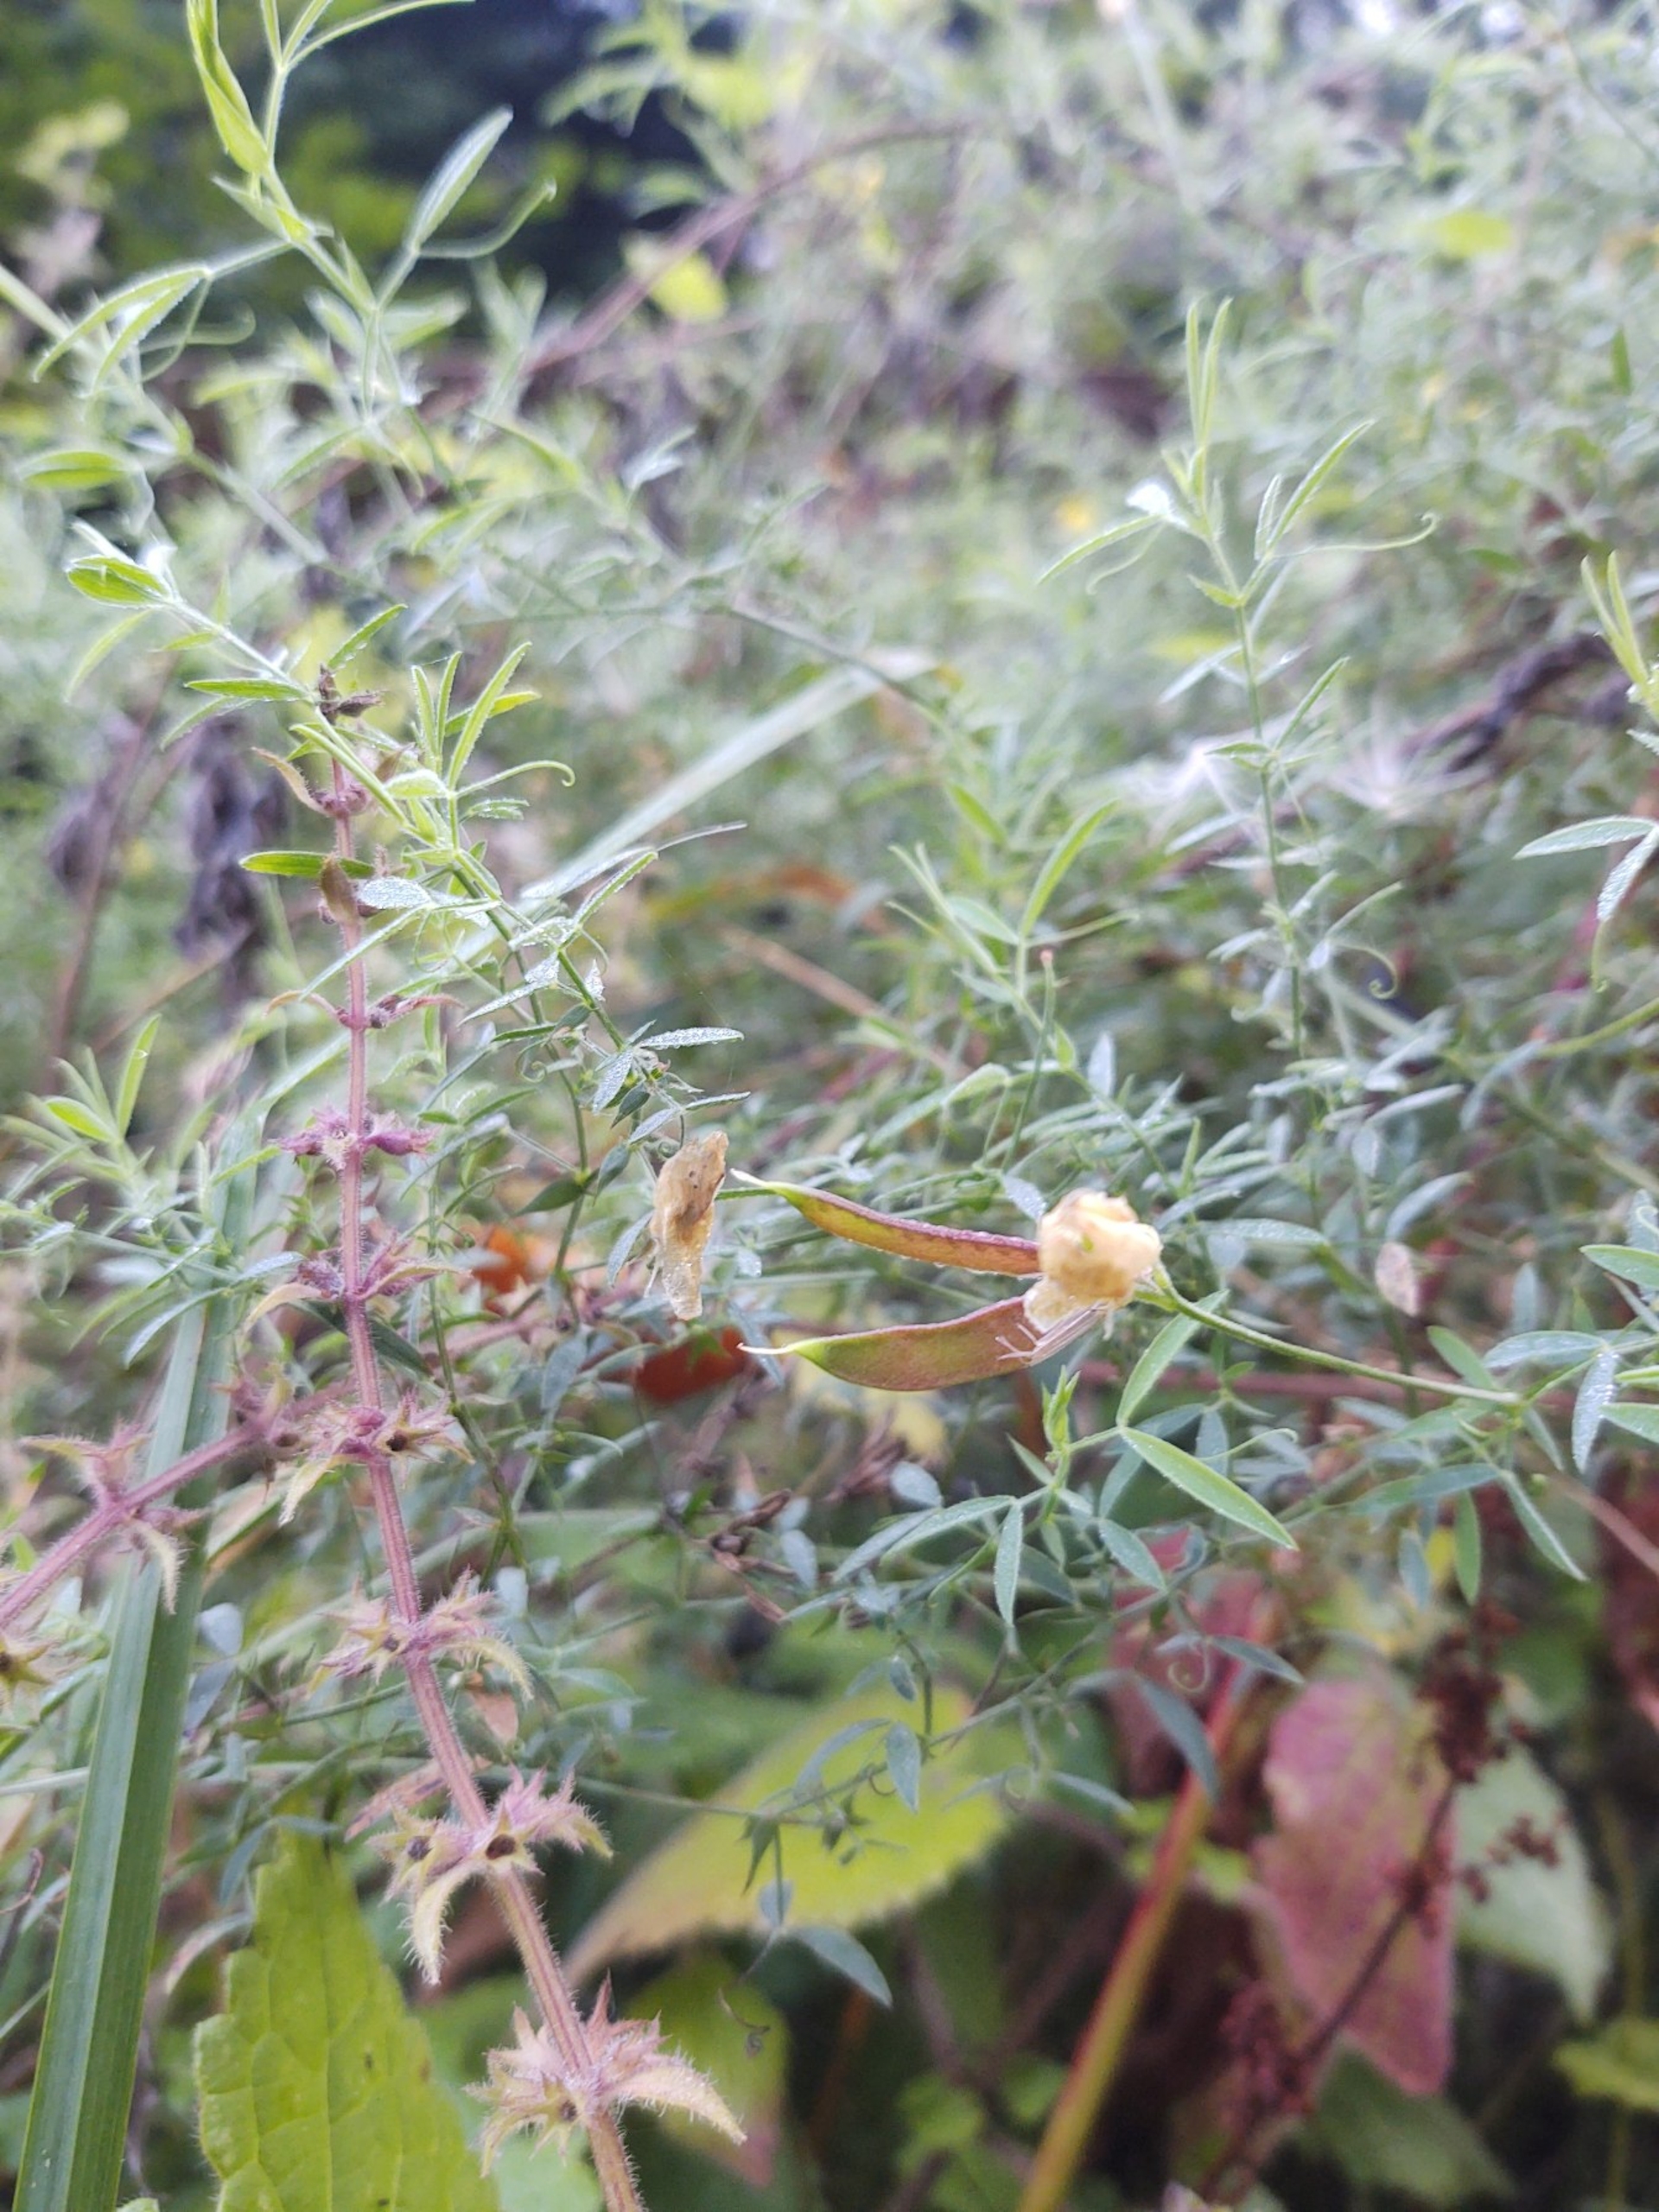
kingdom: Plantae
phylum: Tracheophyta
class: Magnoliopsida
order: Fabales
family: Fabaceae
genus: Lathyrus
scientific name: Lathyrus pratensis
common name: Gul fladbælg
